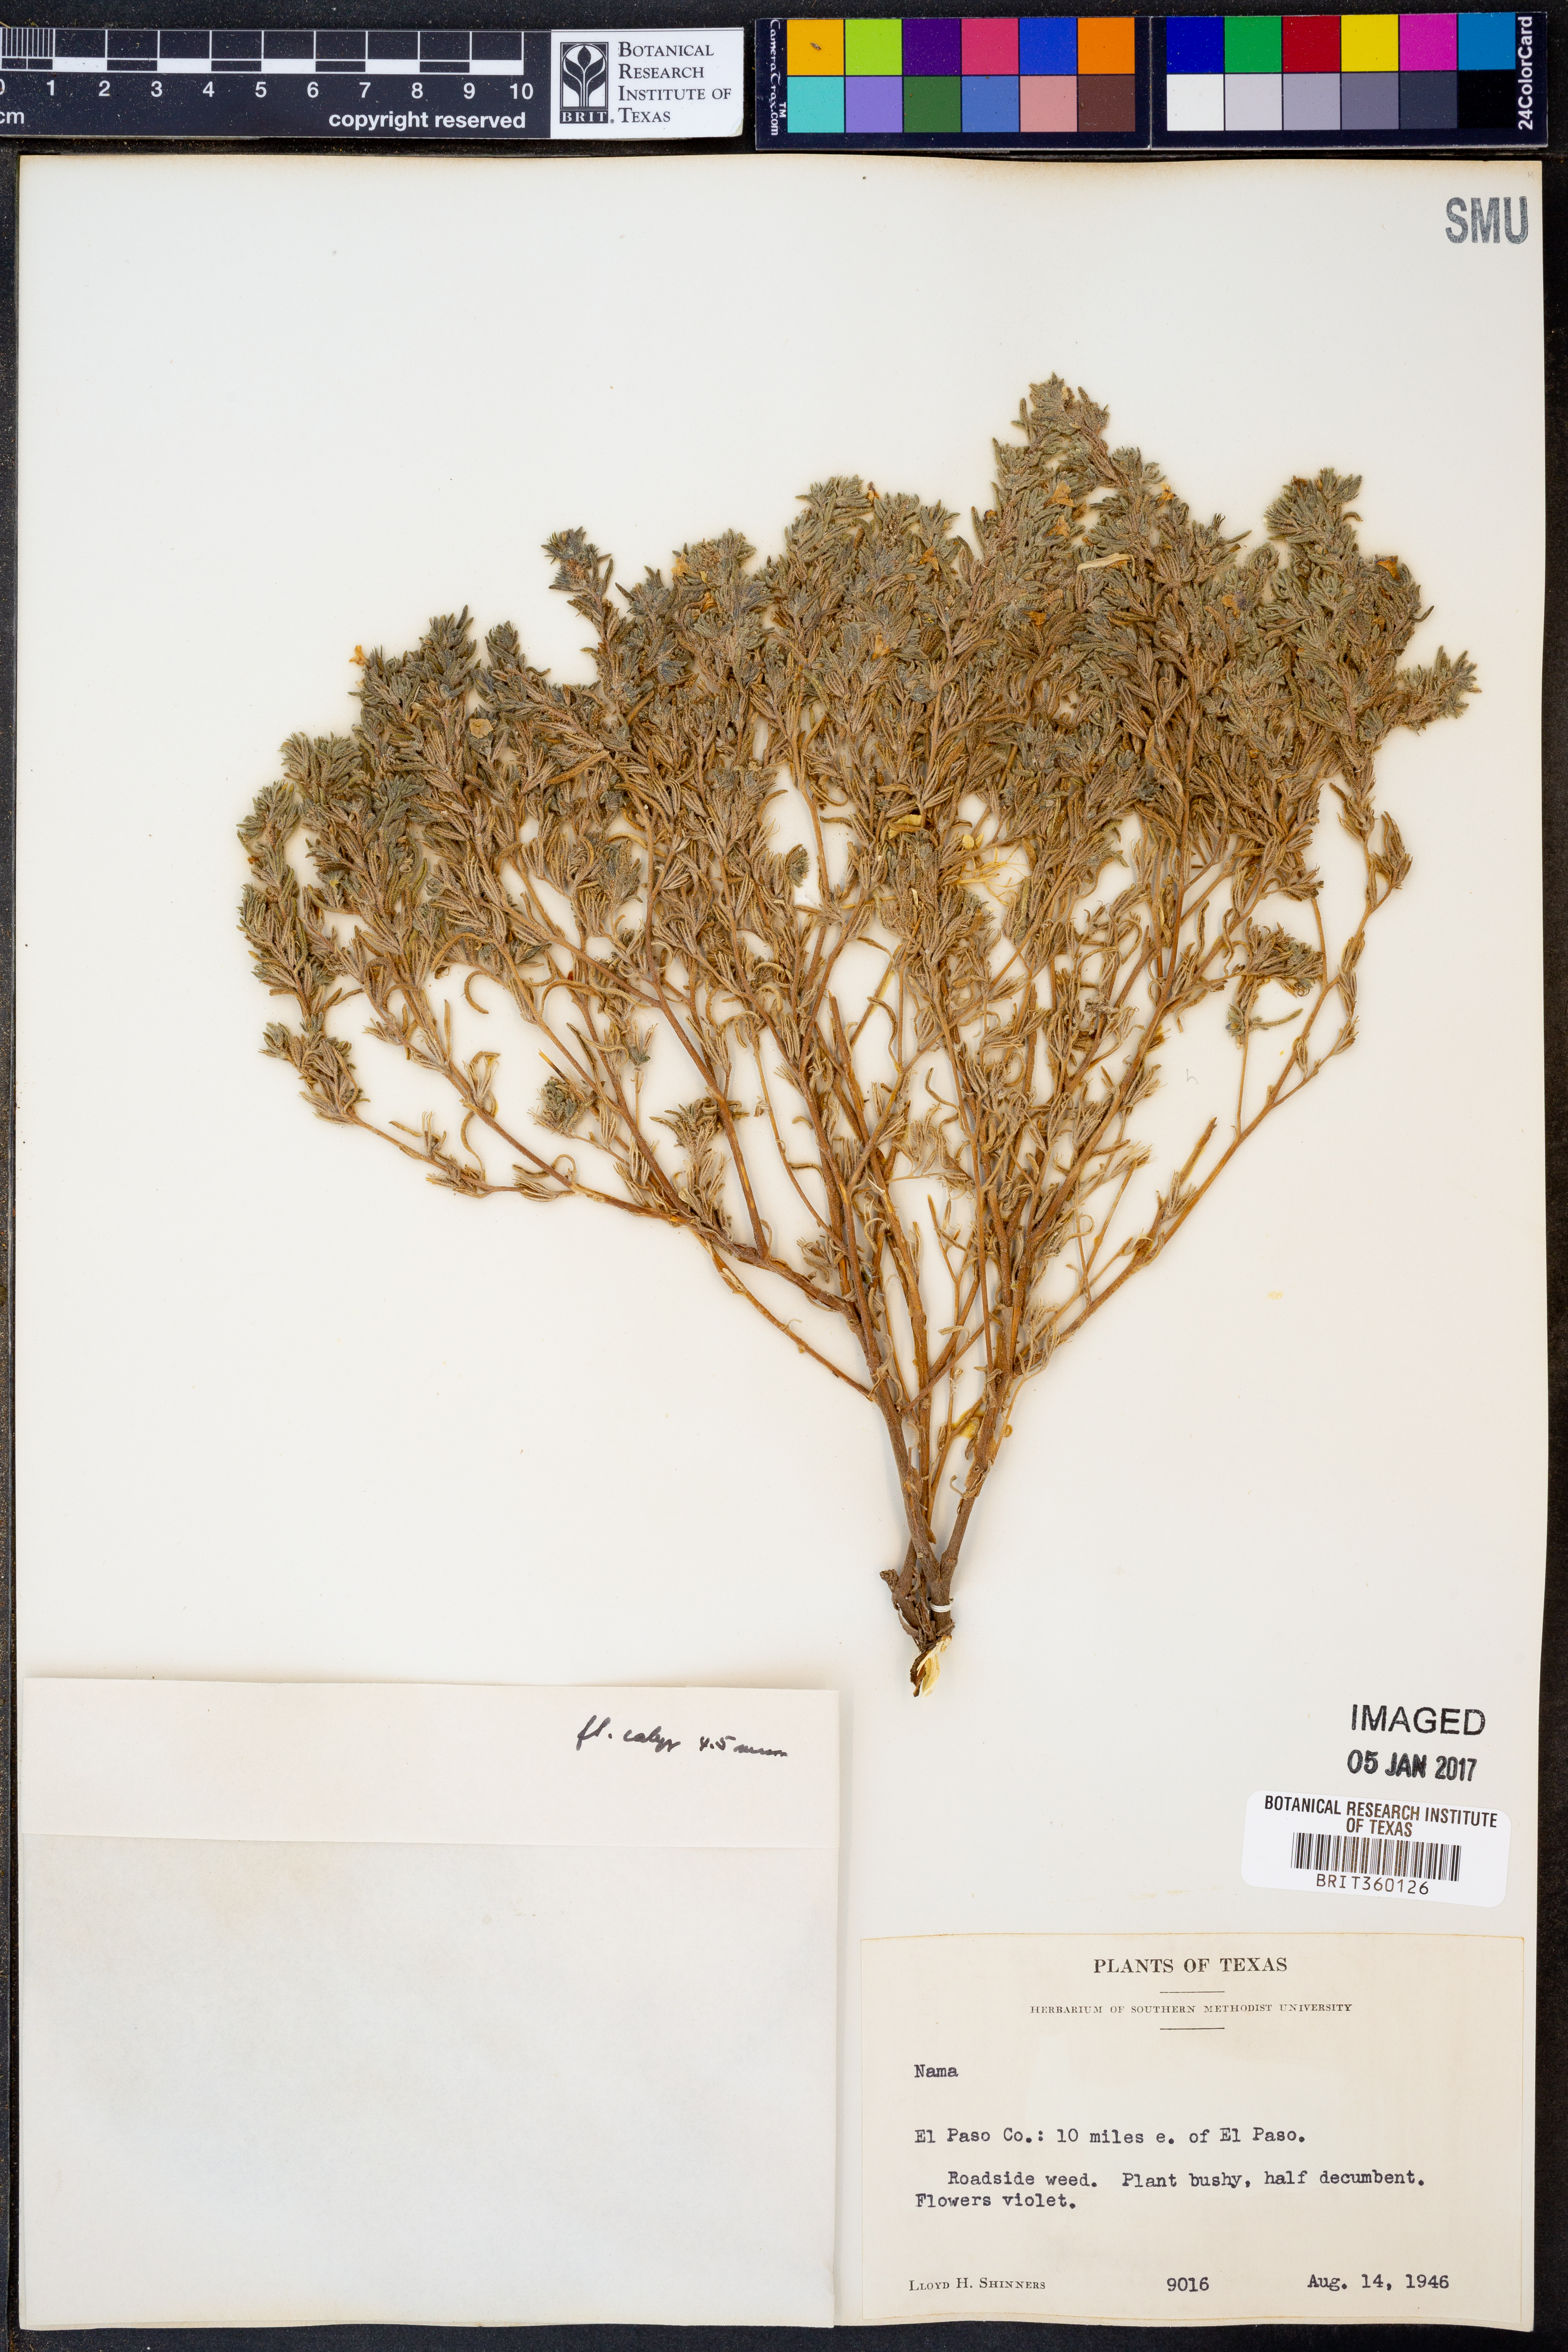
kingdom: Plantae
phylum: Tracheophyta
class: Magnoliopsida
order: Boraginales
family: Namaceae
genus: Nama
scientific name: Nama
